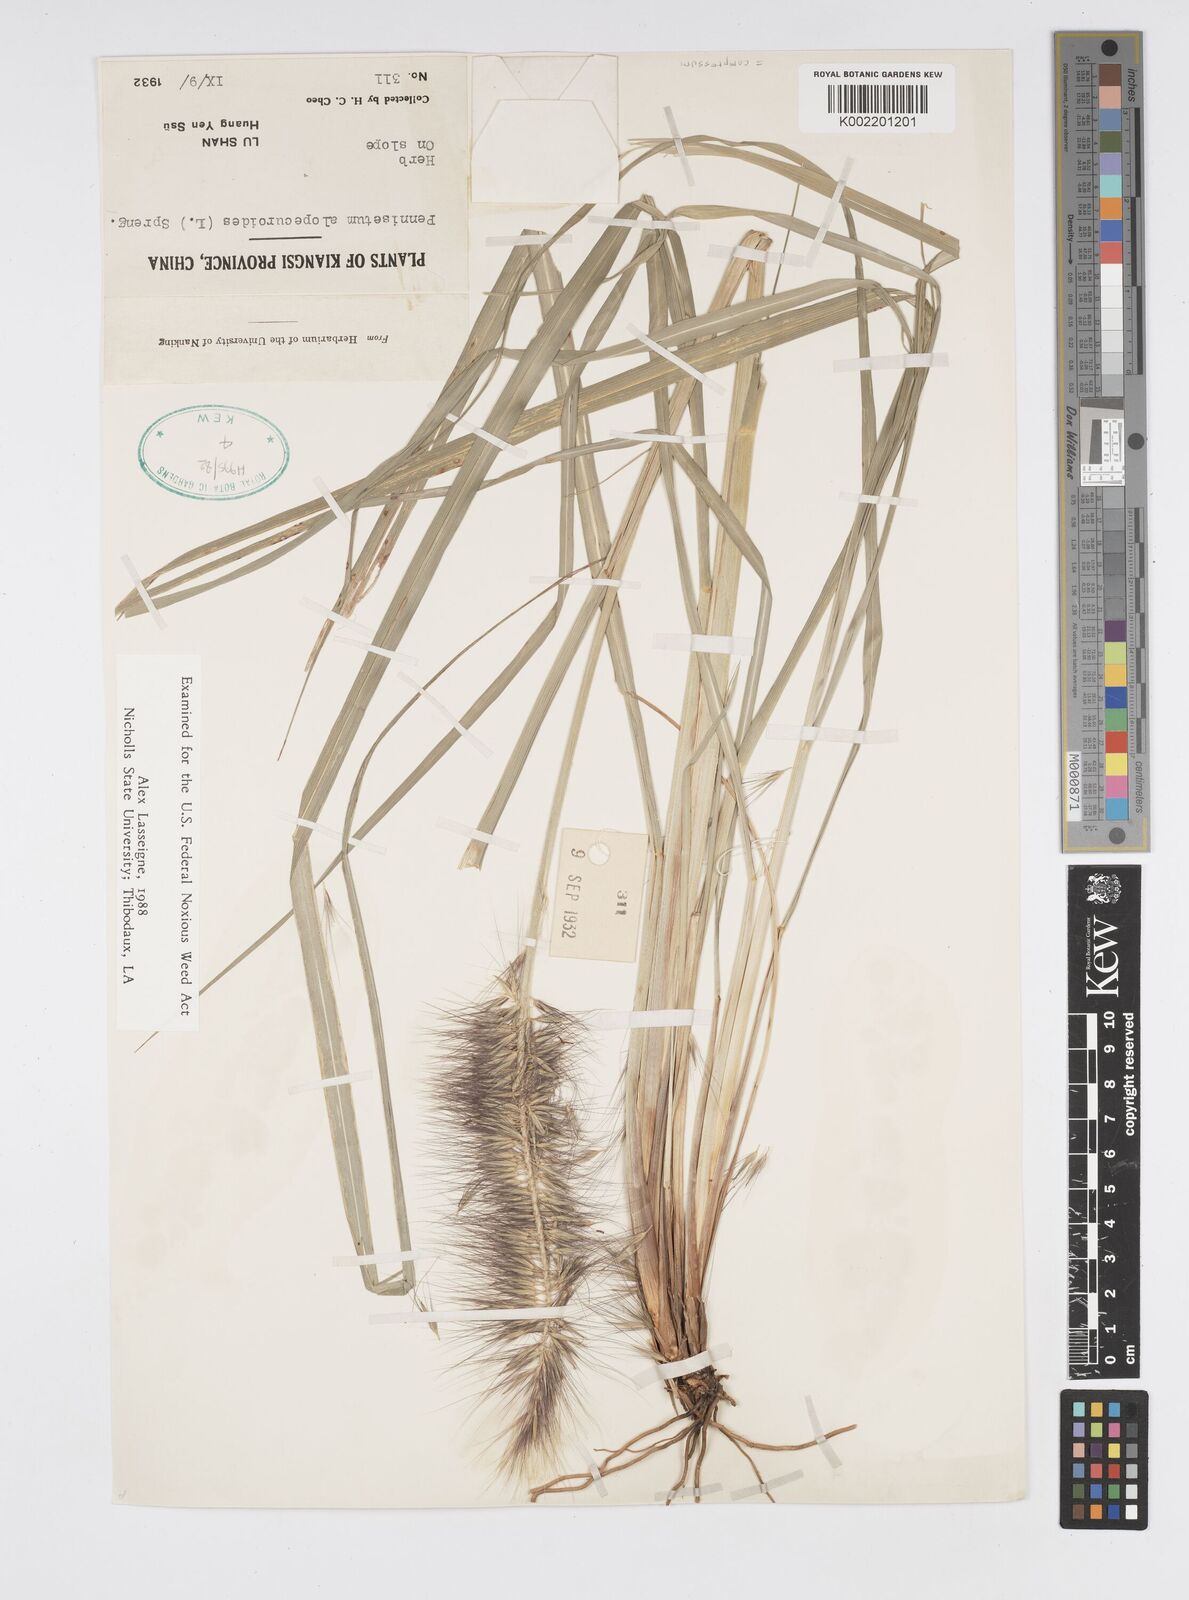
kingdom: Plantae
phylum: Tracheophyta
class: Liliopsida
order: Poales
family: Poaceae
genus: Cenchrus
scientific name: Cenchrus alopecuroides
